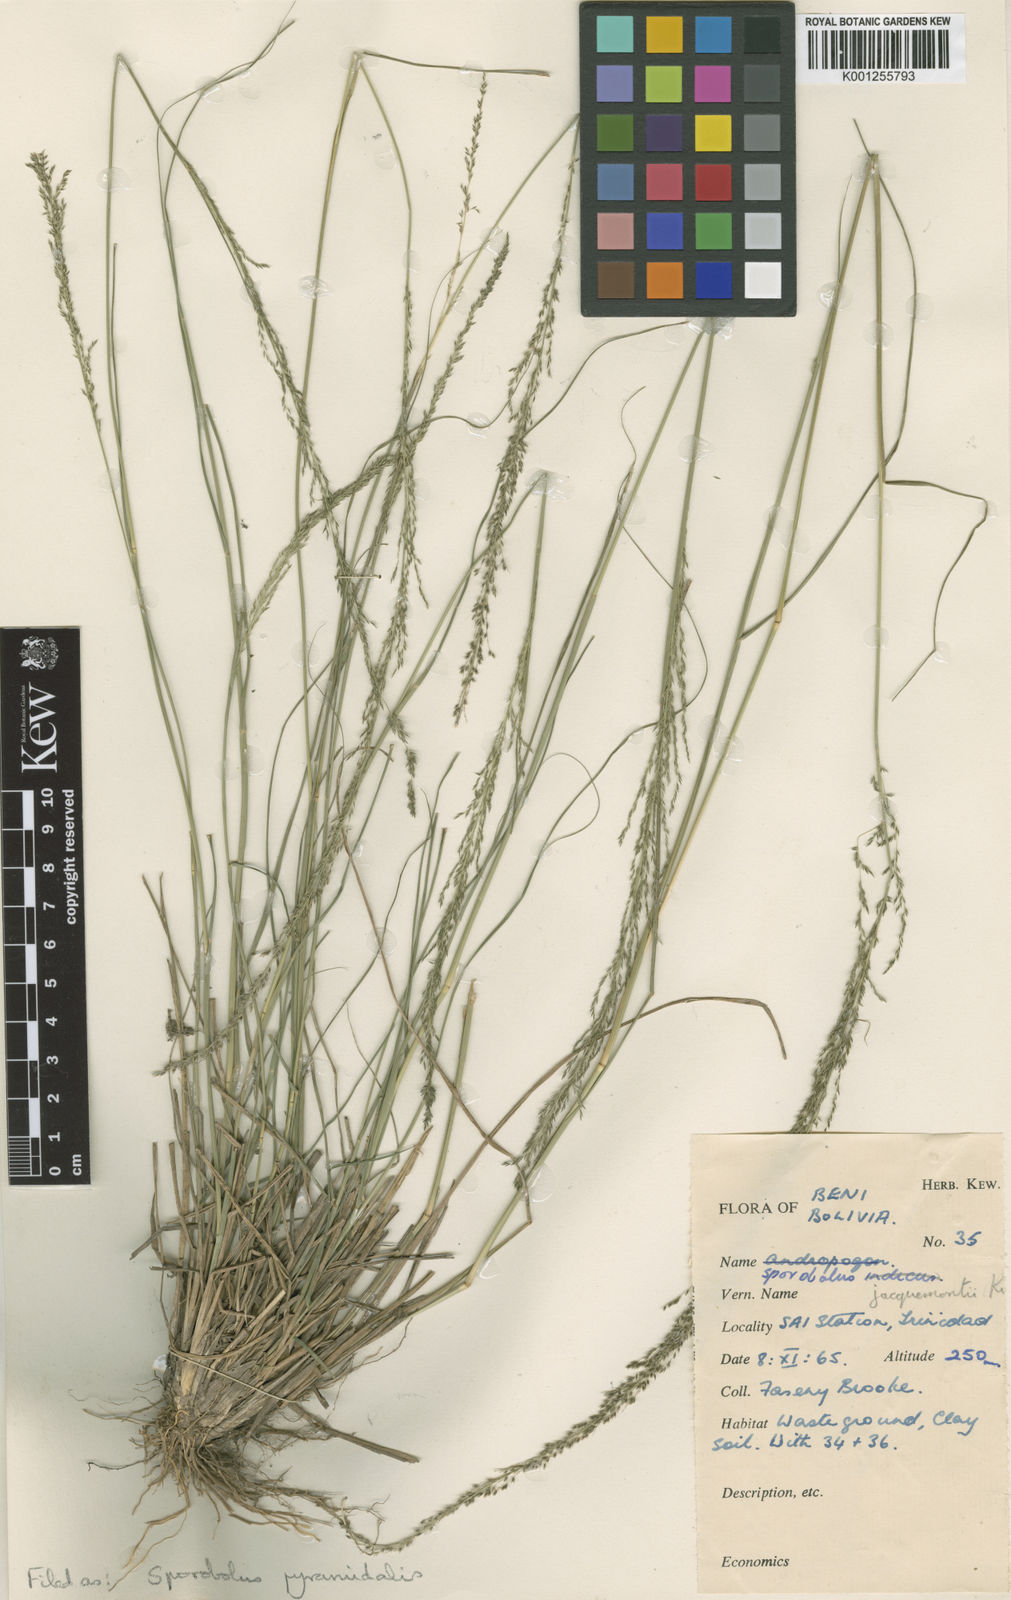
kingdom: Plantae
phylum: Tracheophyta
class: Liliopsida
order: Poales
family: Poaceae
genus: Sporobolus
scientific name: Sporobolus pyramidalis
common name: West indian dropseed
